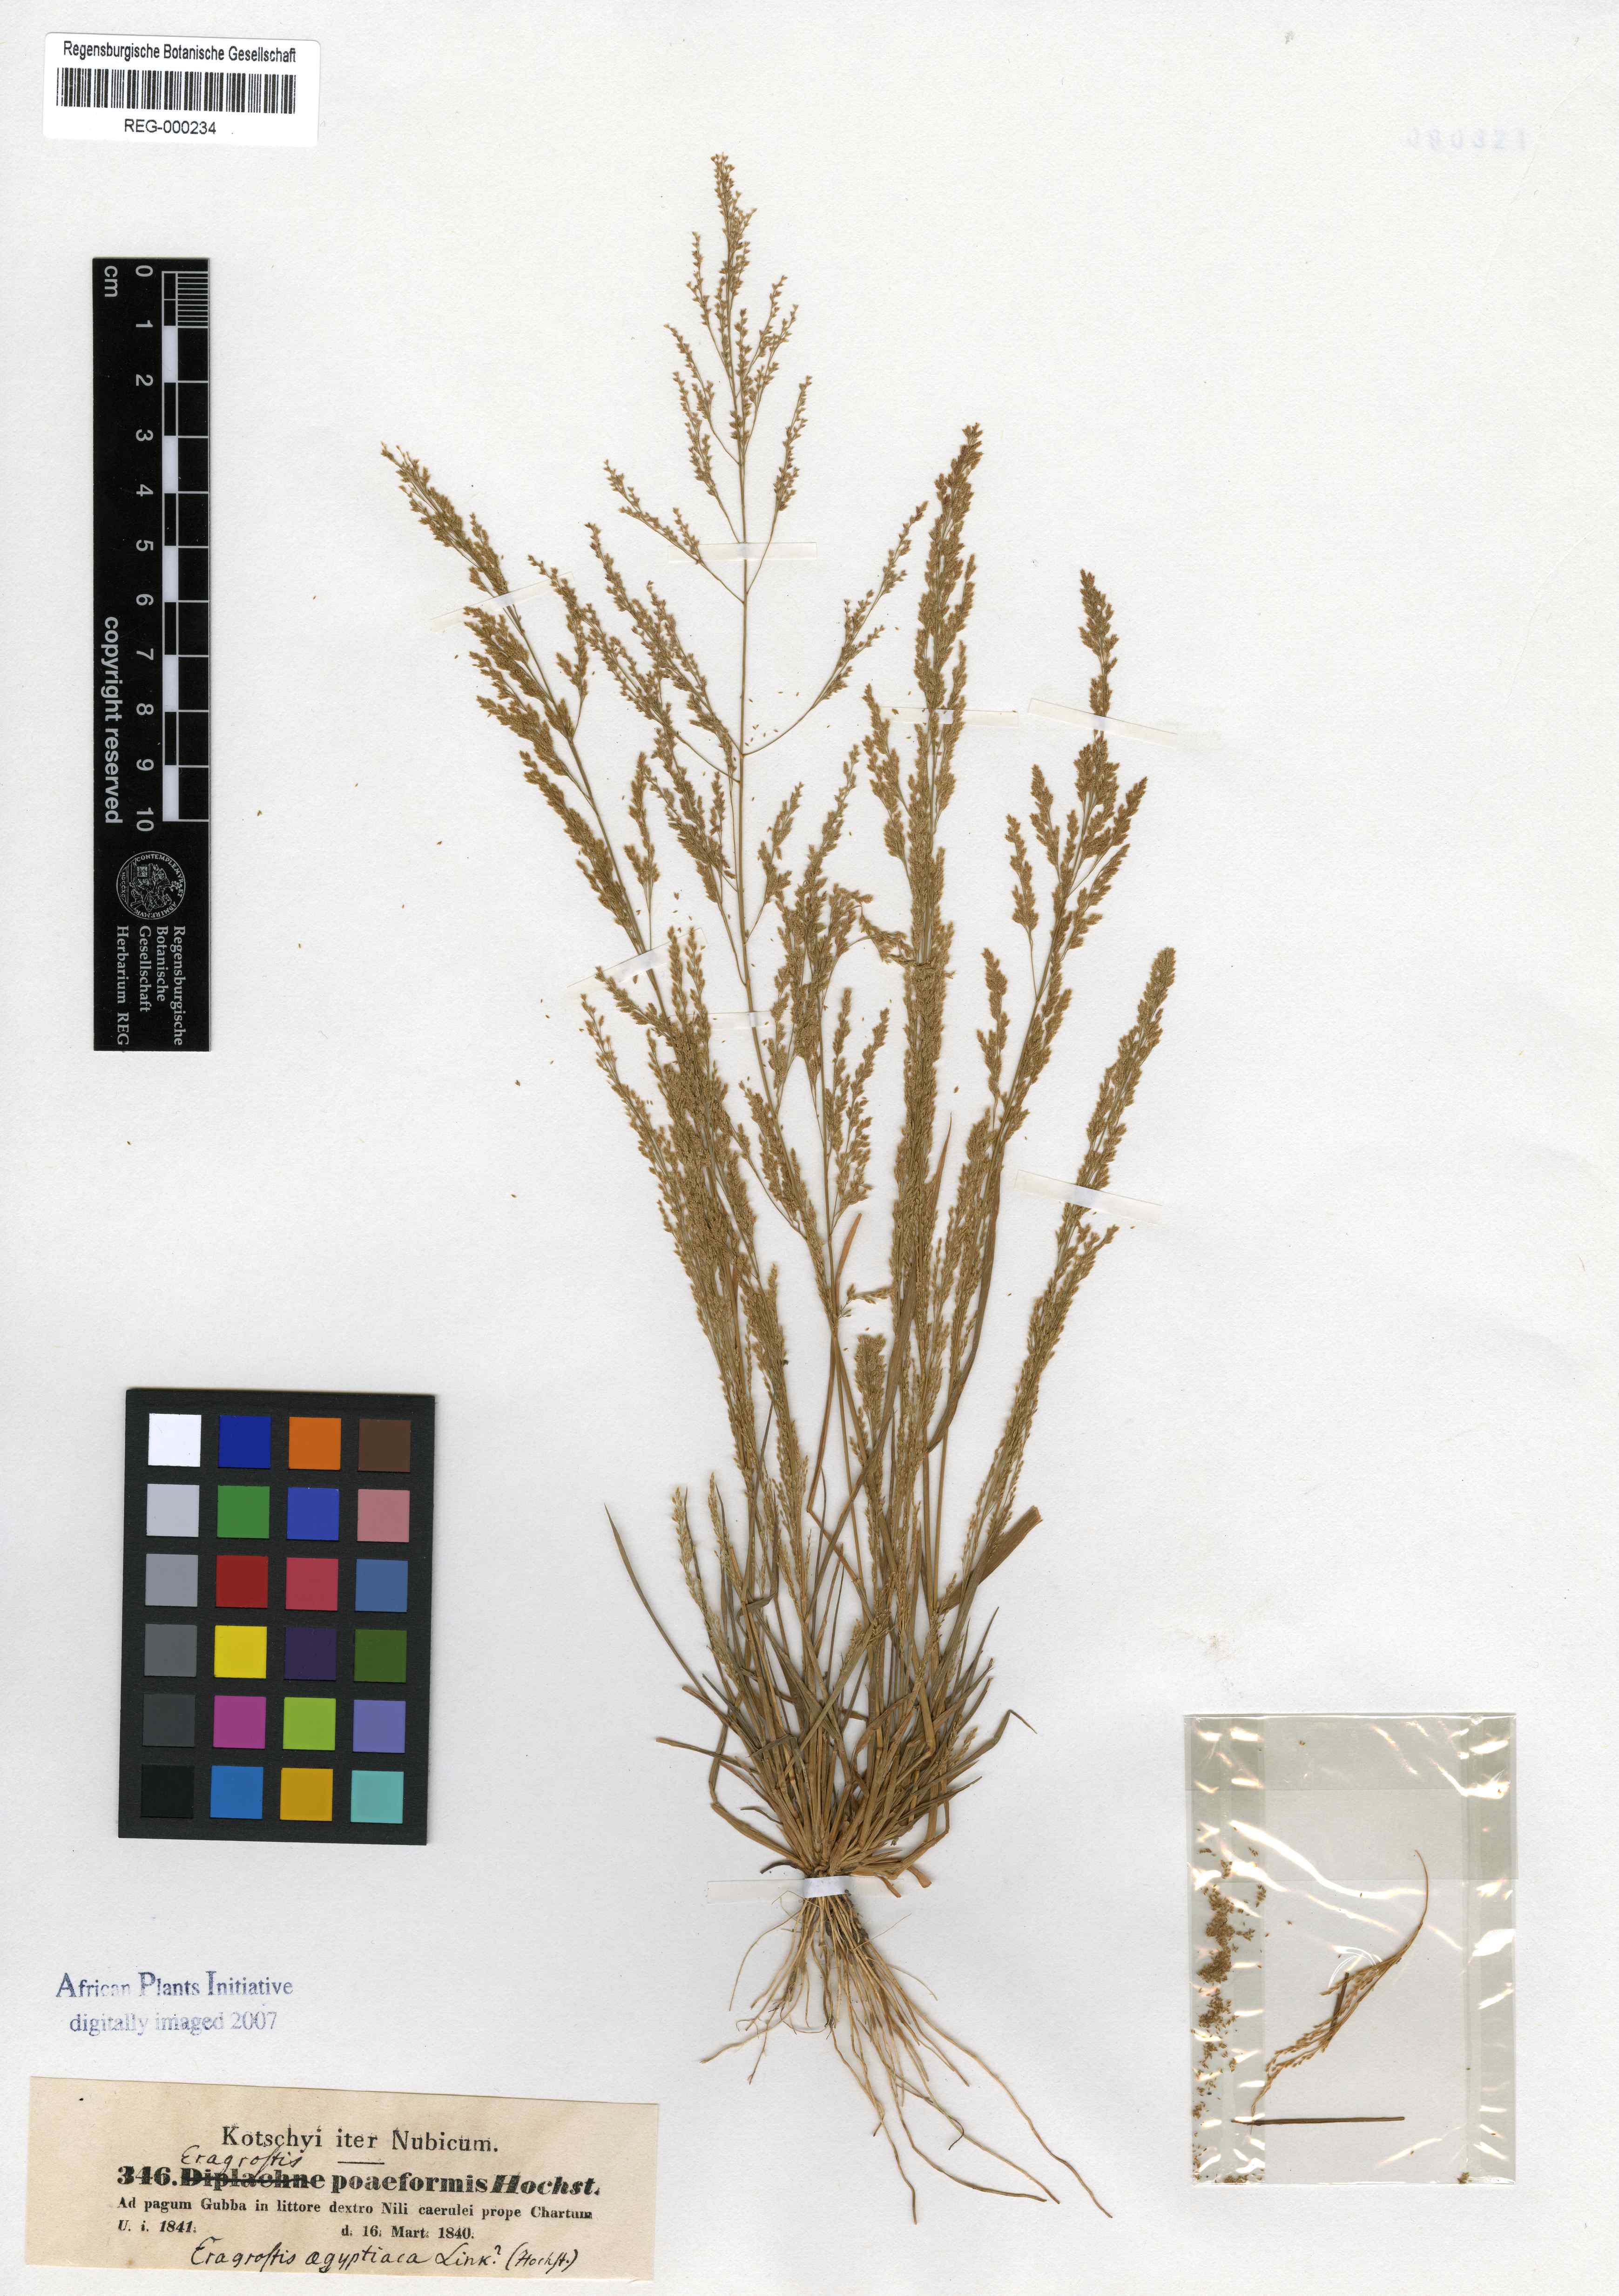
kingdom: Plantae
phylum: Tracheophyta
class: Liliopsida
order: Poales
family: Poaceae
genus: Eragrostis
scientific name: Eragrostis
